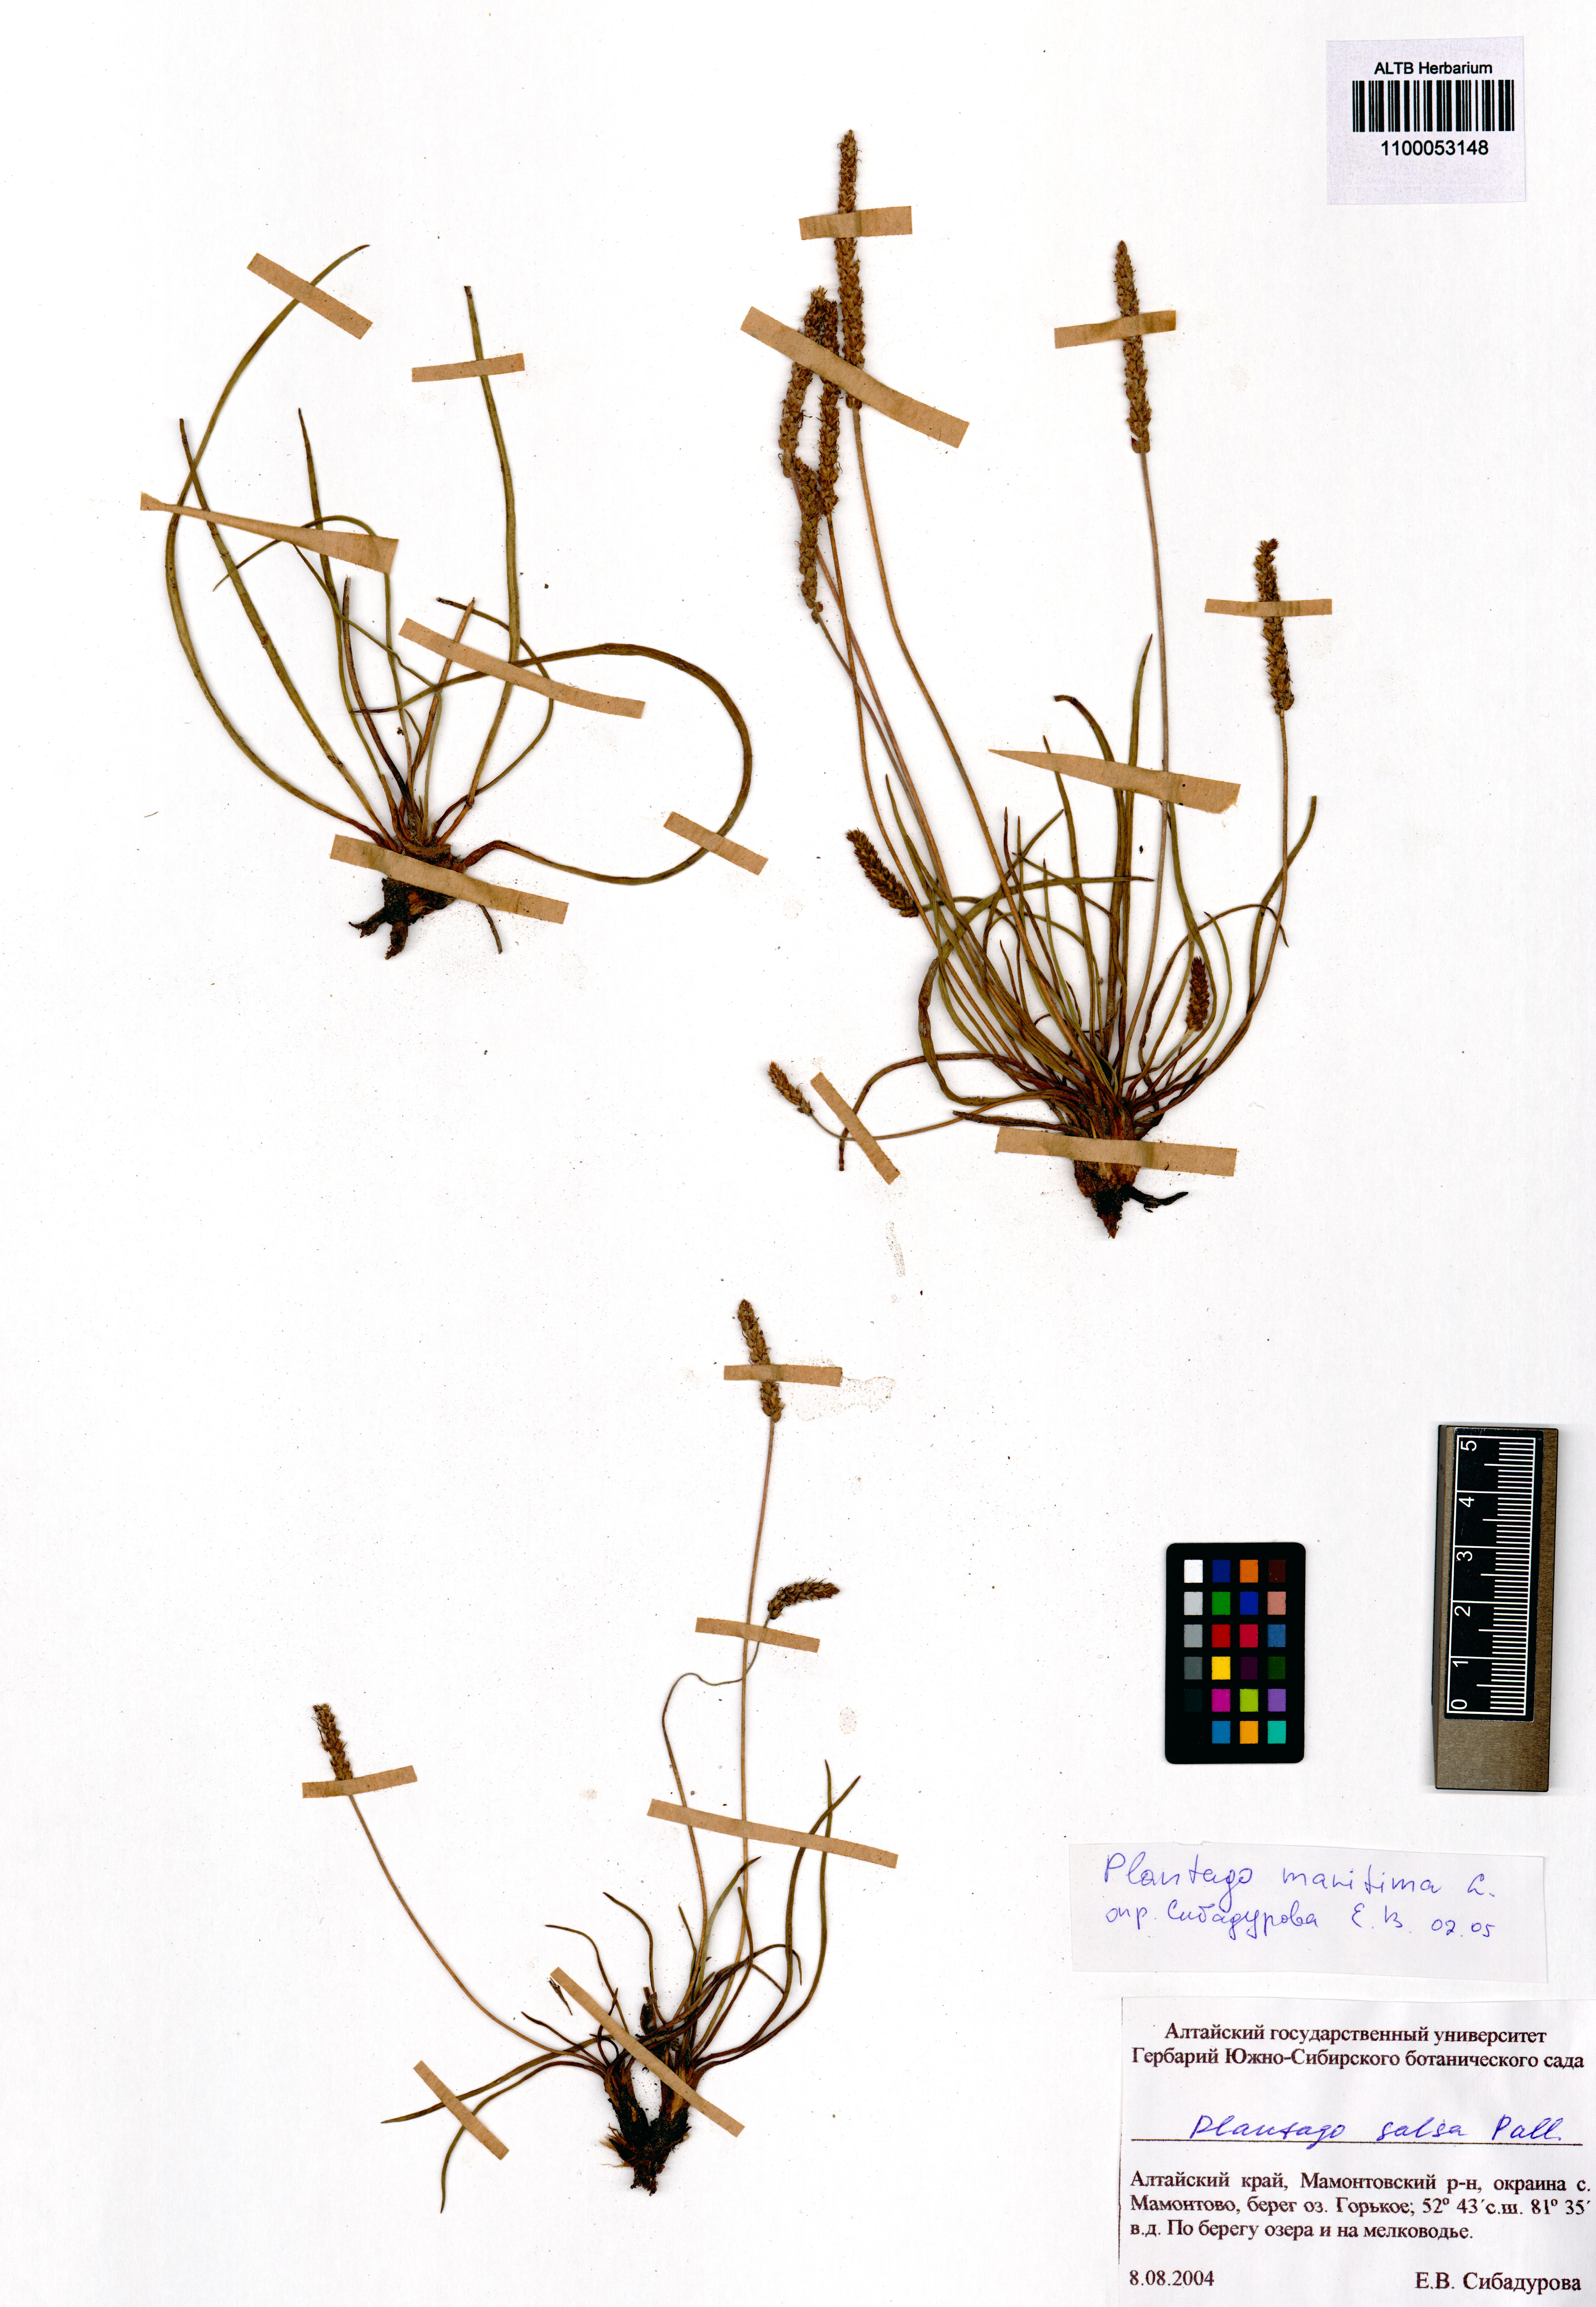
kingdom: Plantae
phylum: Tracheophyta
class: Magnoliopsida
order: Lamiales
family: Plantaginaceae
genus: Plantago
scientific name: Plantago maritima
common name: Sea plantain
